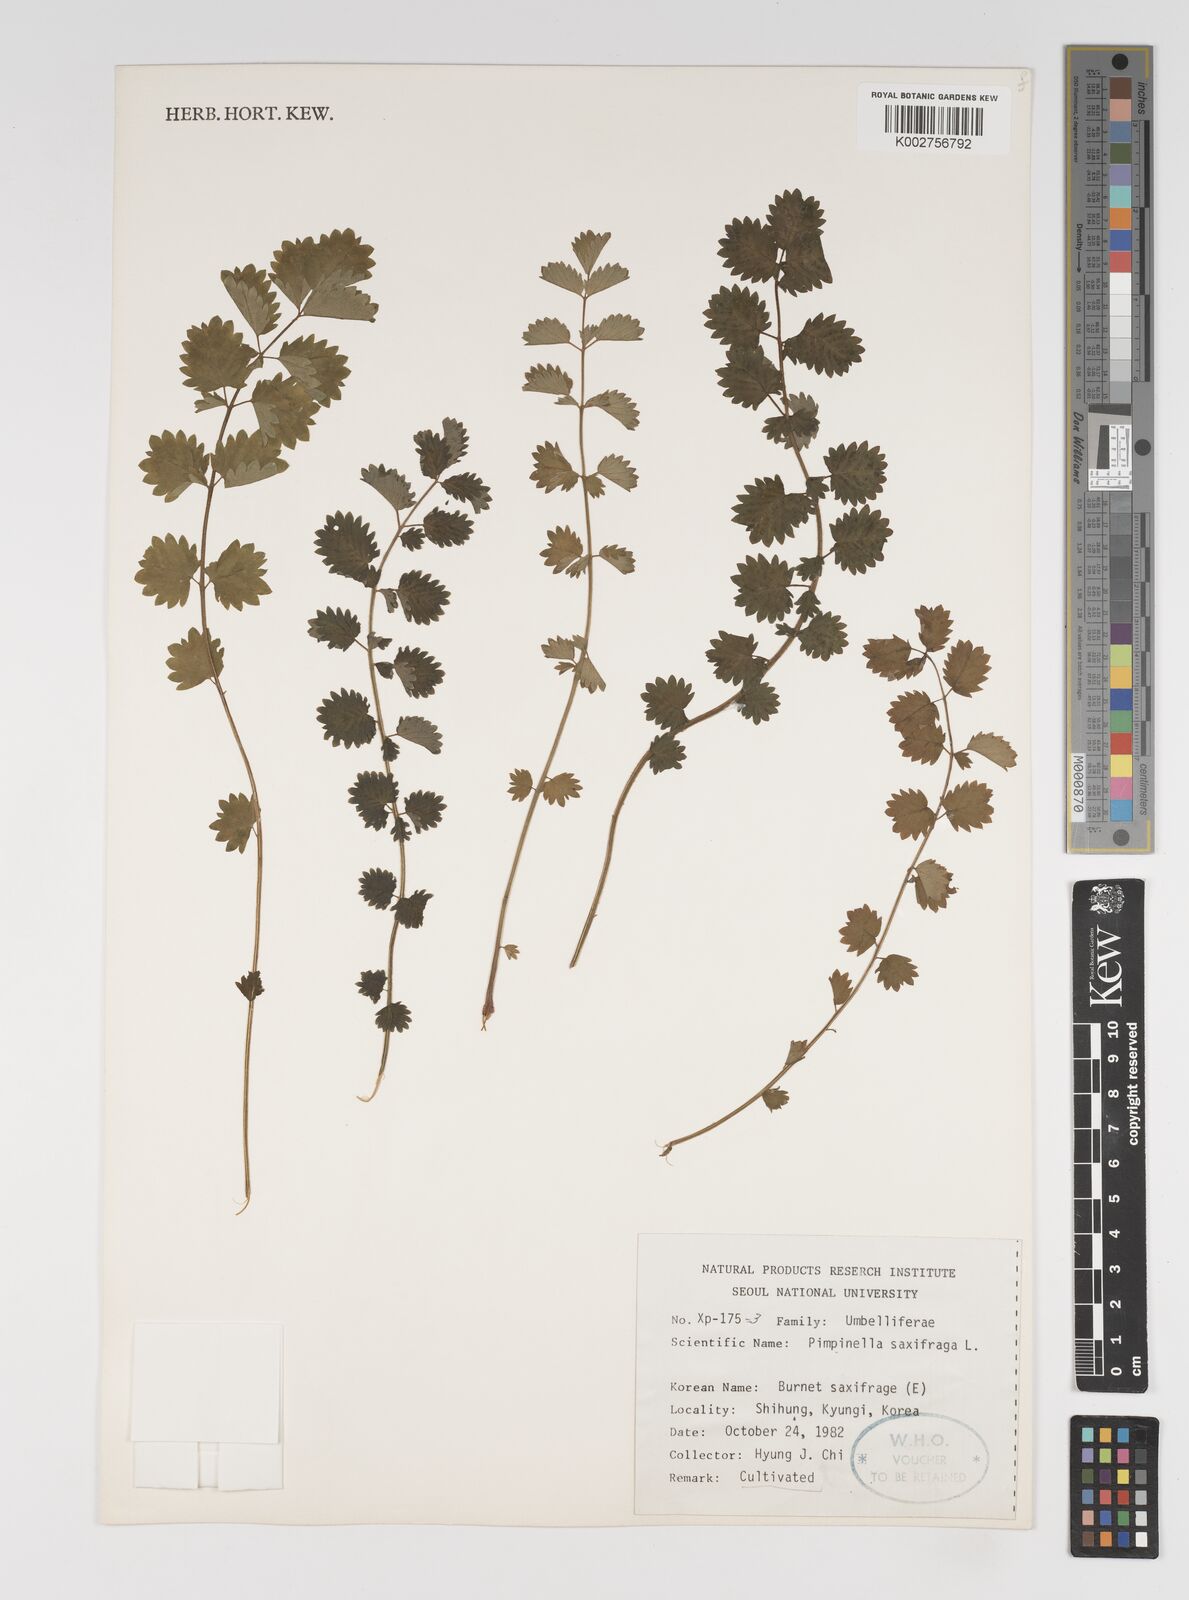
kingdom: Plantae
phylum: Tracheophyta
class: Magnoliopsida
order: Apiales
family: Apiaceae
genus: Pimpinella
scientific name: Pimpinella saxifraga
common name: Burnet-saxifrage
